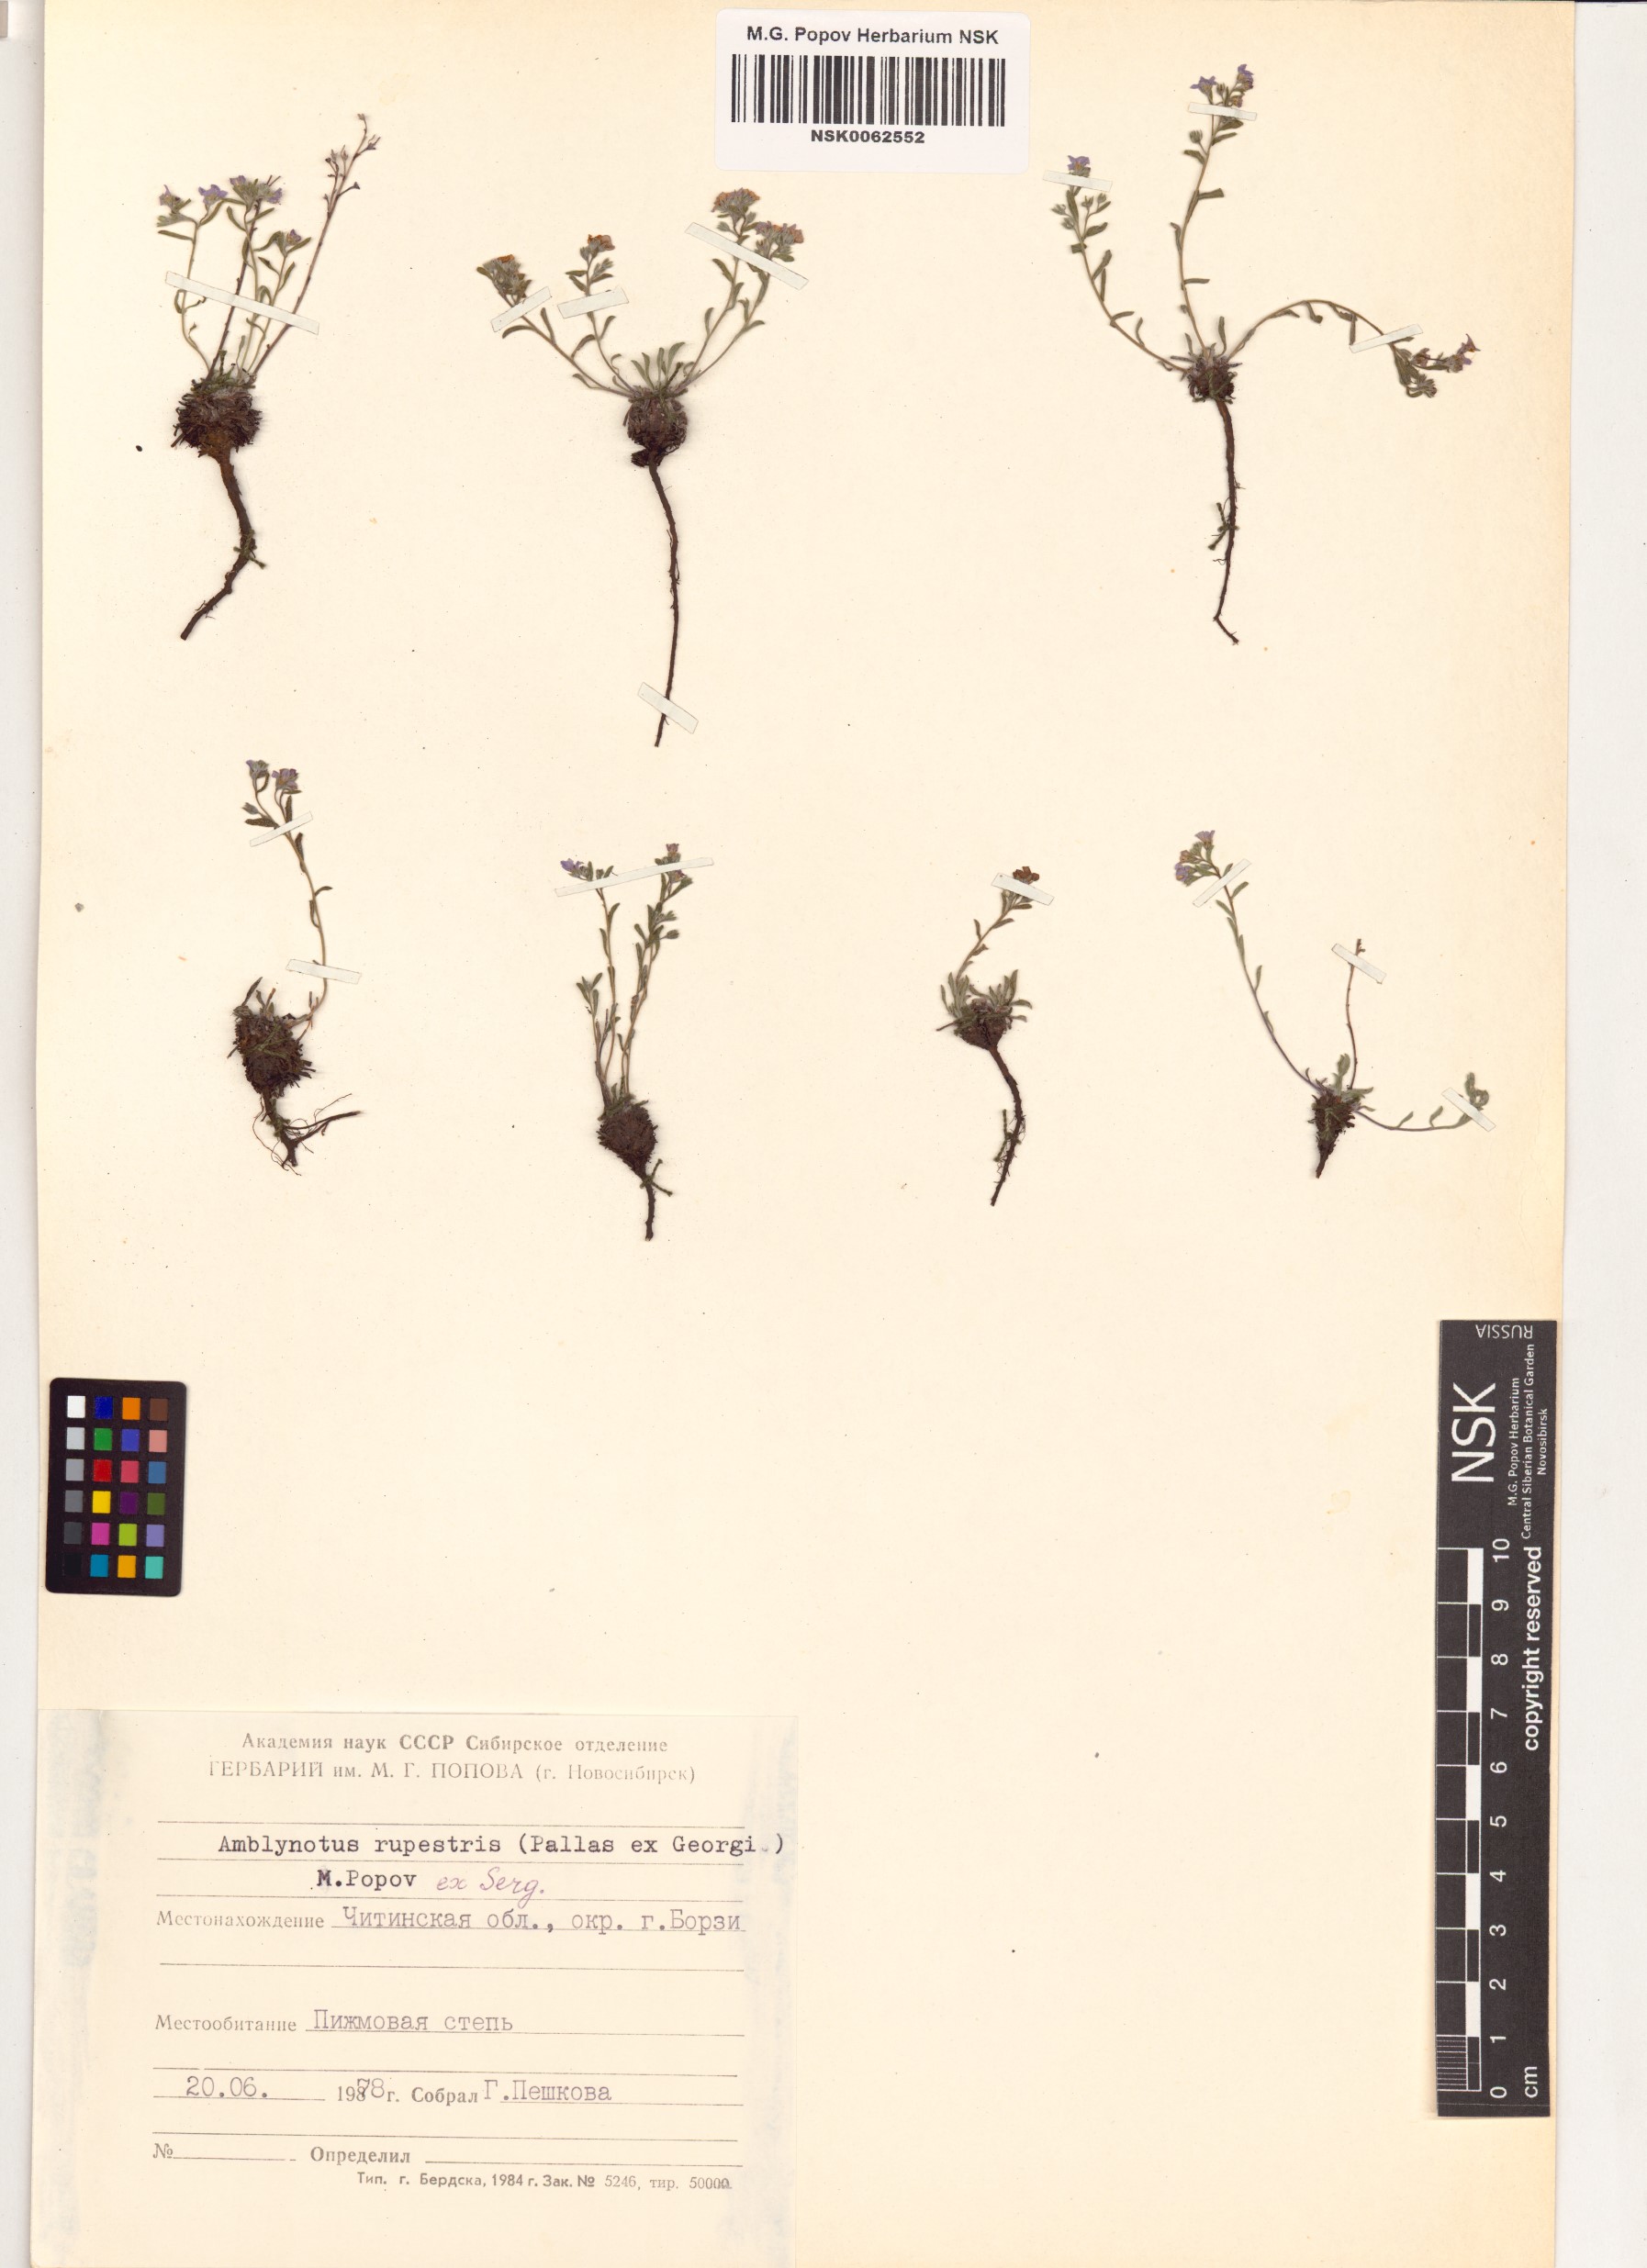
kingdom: Plantae
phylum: Tracheophyta
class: Magnoliopsida
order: Boraginales
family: Boraginaceae
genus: Eritrichium
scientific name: Eritrichium rupestre
